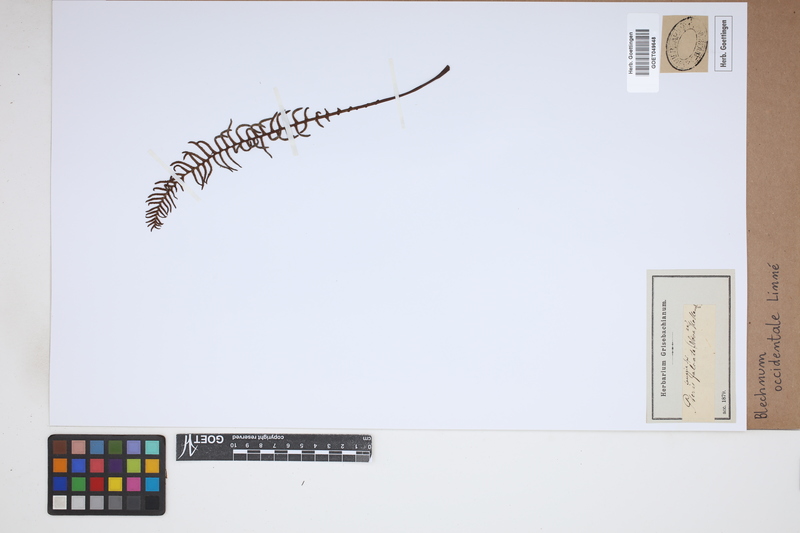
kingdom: Plantae
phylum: Tracheophyta
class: Polypodiopsida
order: Polypodiales
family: Blechnaceae
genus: Blechnum
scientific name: Blechnum occidentale
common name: Hammock fern
